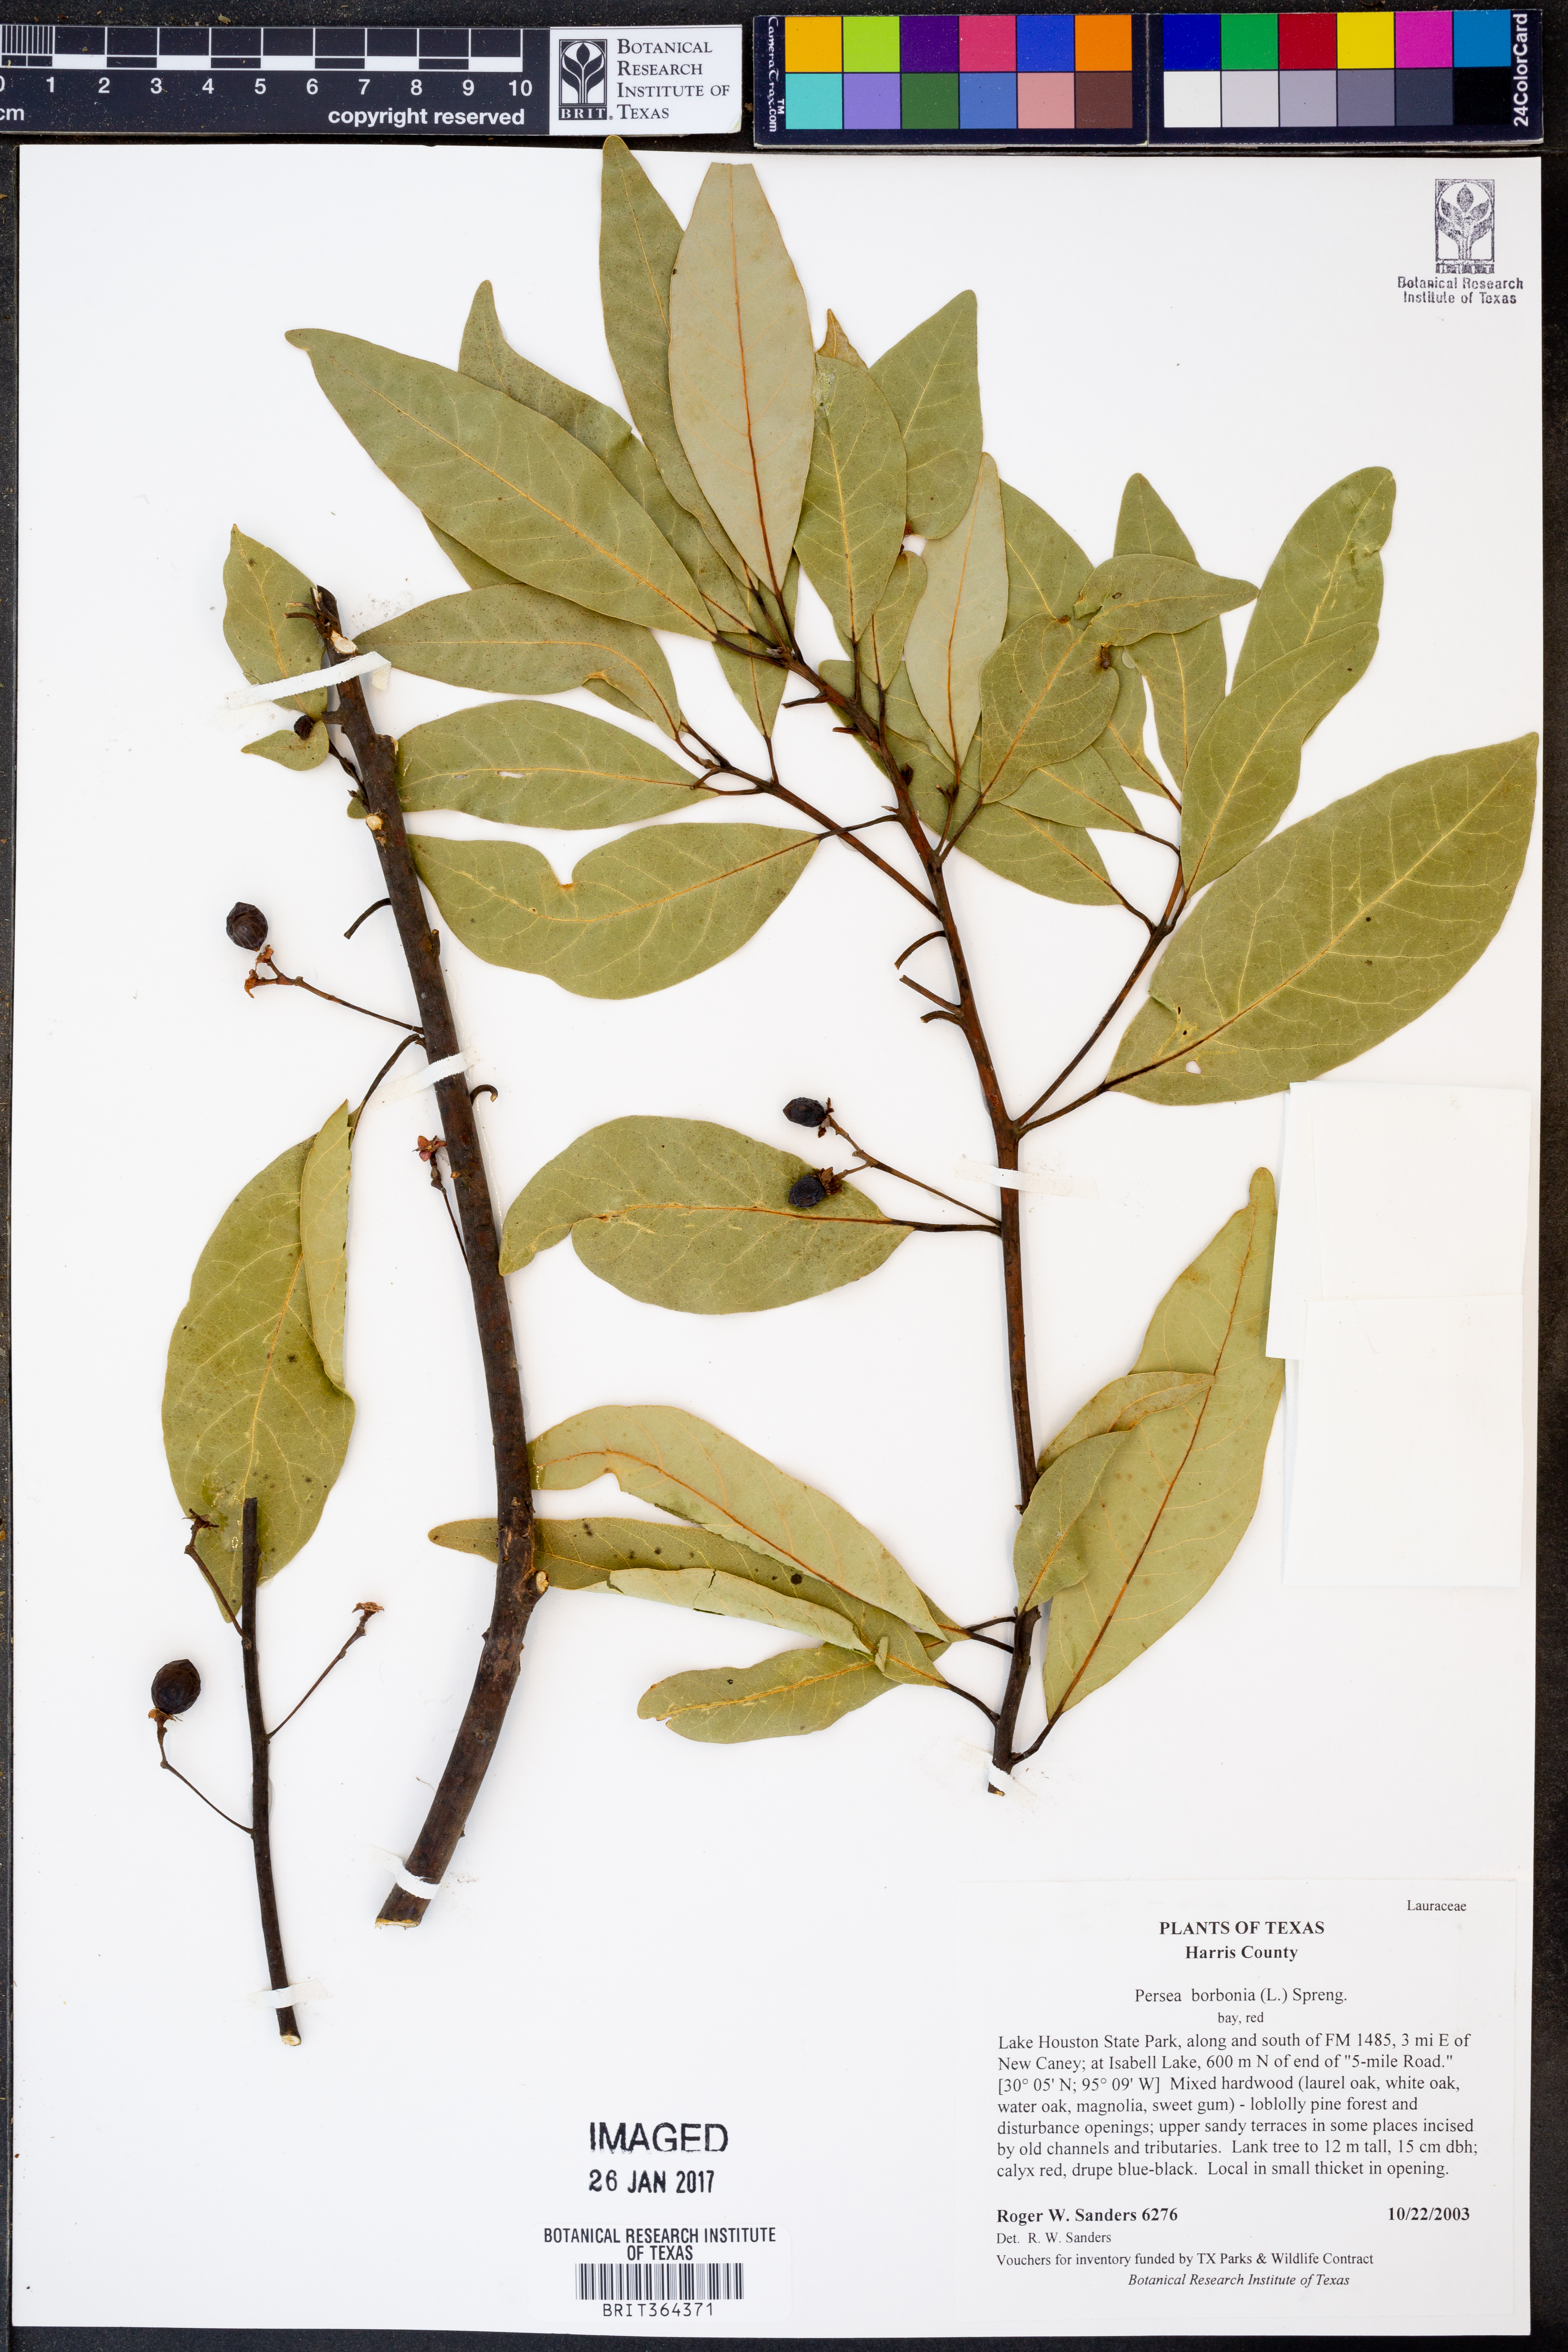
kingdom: Plantae
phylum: Tracheophyta
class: Magnoliopsida
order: Laurales
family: Lauraceae
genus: Persea
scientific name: Persea borbonia
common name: Redbay
